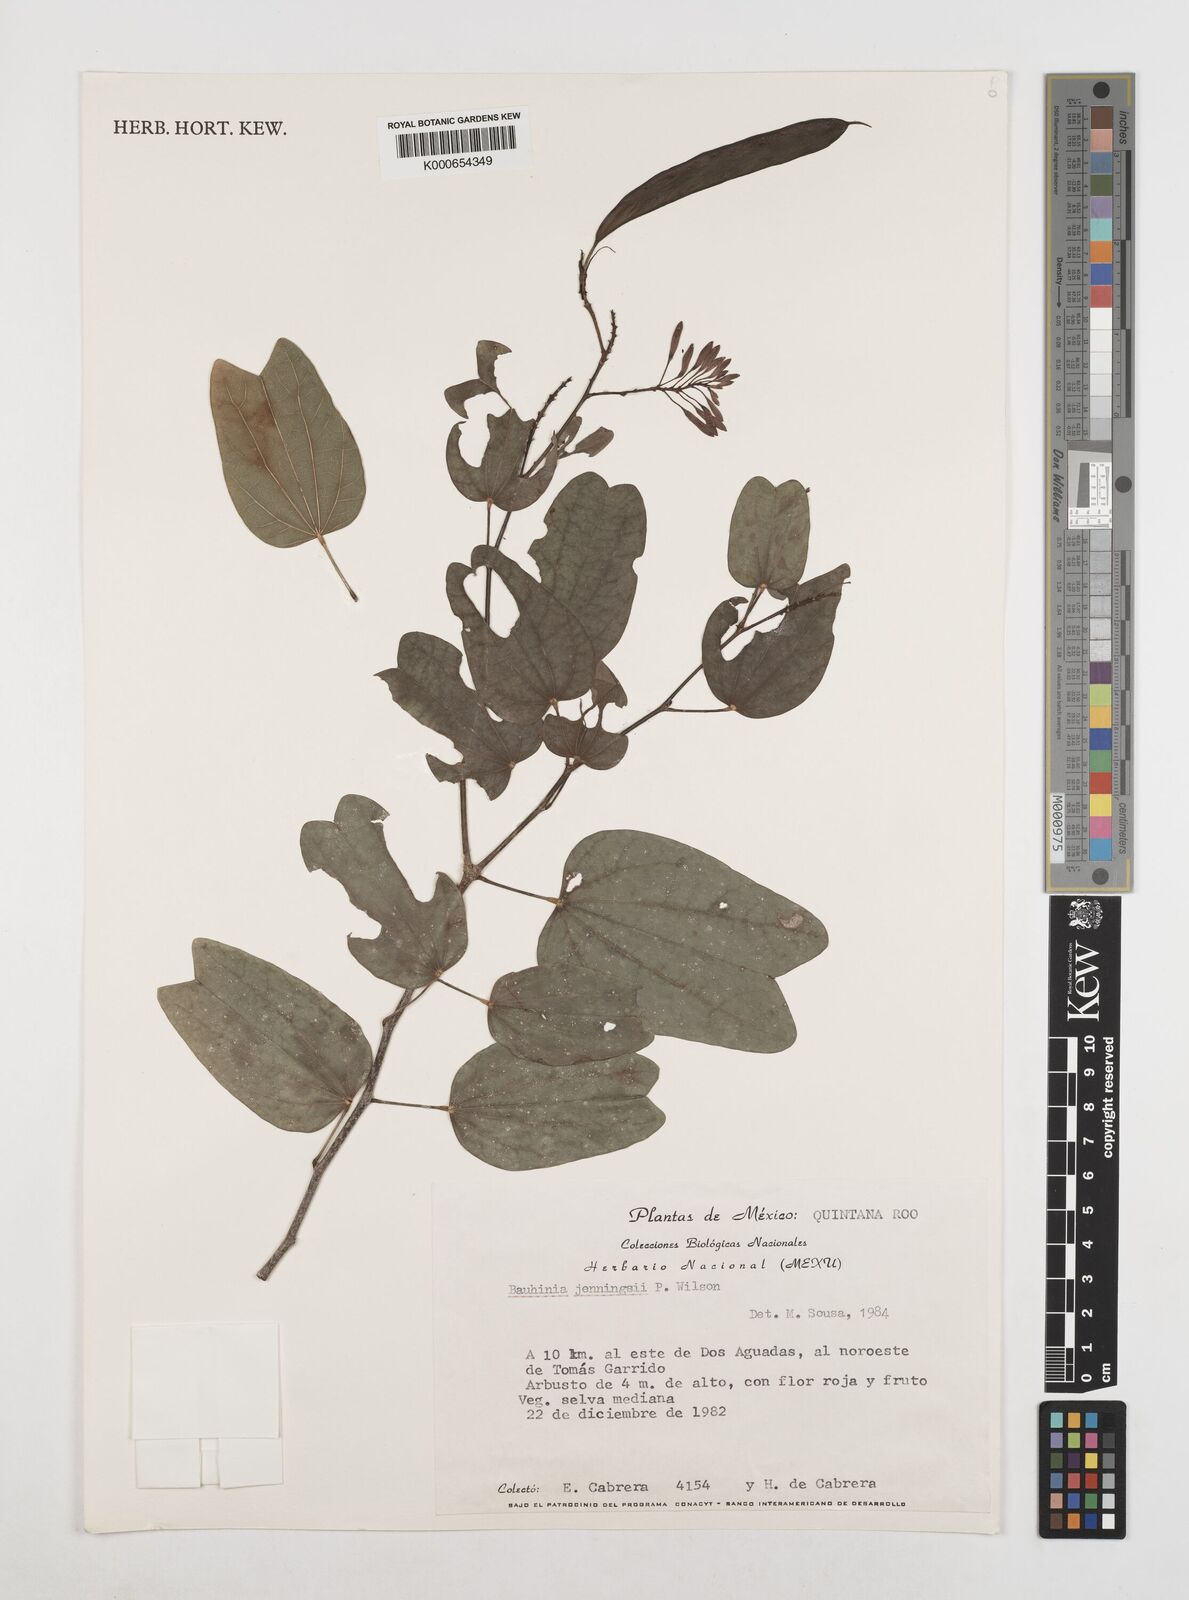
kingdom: Plantae
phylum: Tracheophyta
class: Magnoliopsida
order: Fabales
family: Fabaceae
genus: Bauhinia
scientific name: Bauhinia jenningsii
